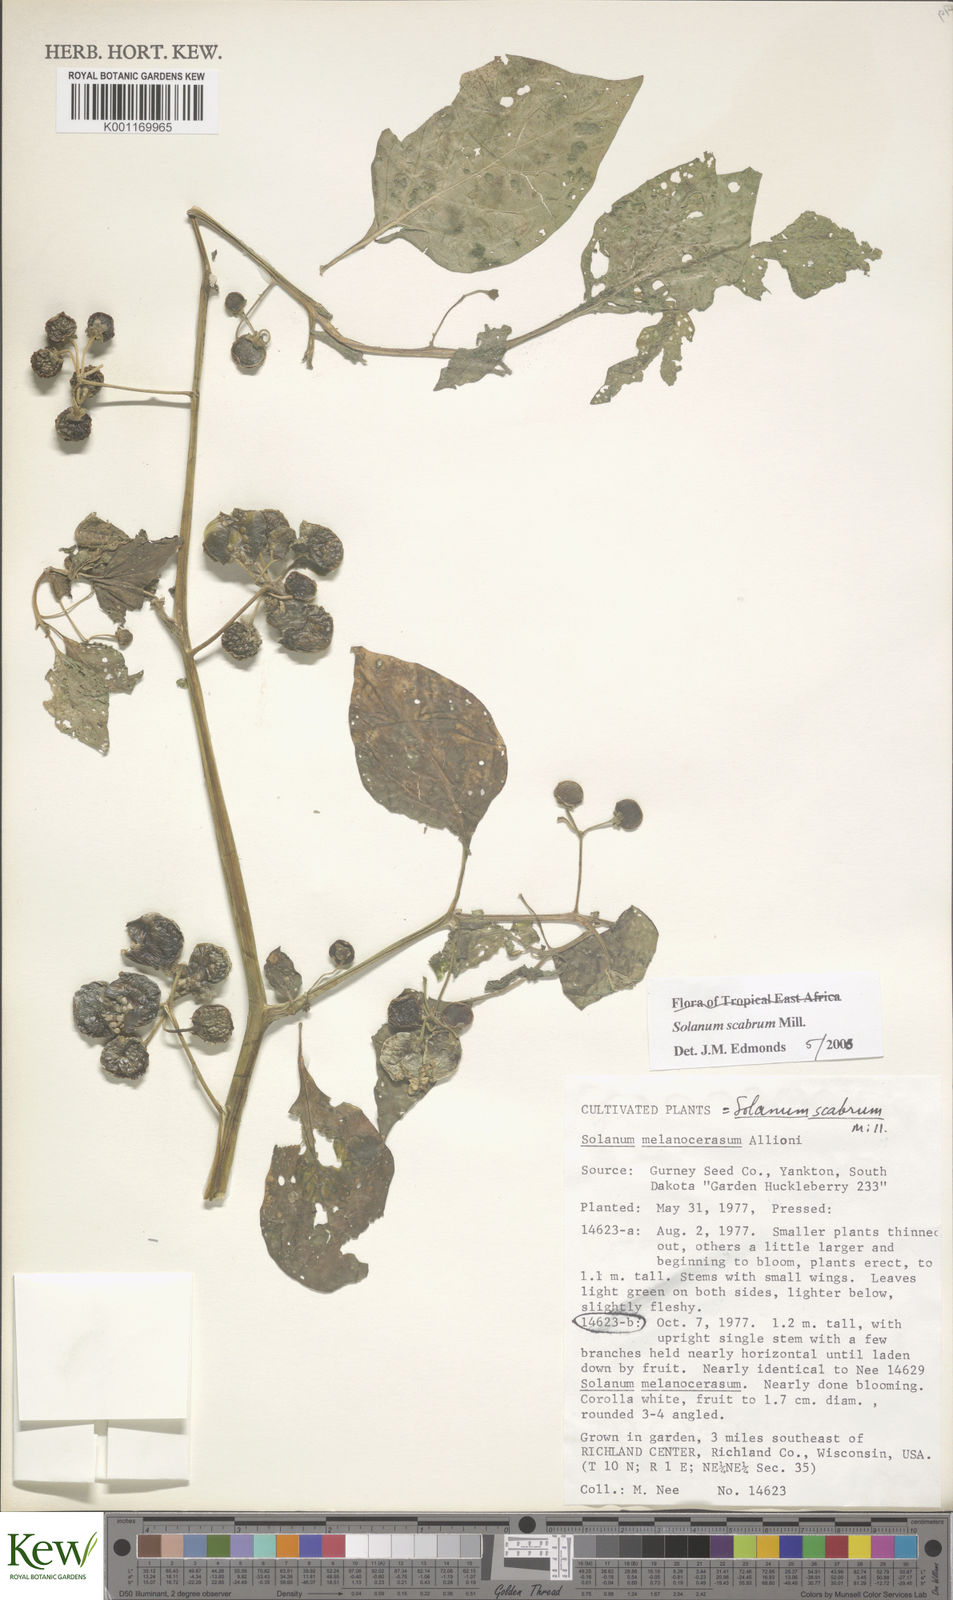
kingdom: Plantae
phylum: Tracheophyta
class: Magnoliopsida
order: Solanales
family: Solanaceae
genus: Solanum
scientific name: Solanum scabrum
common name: Garden-huckleberry
